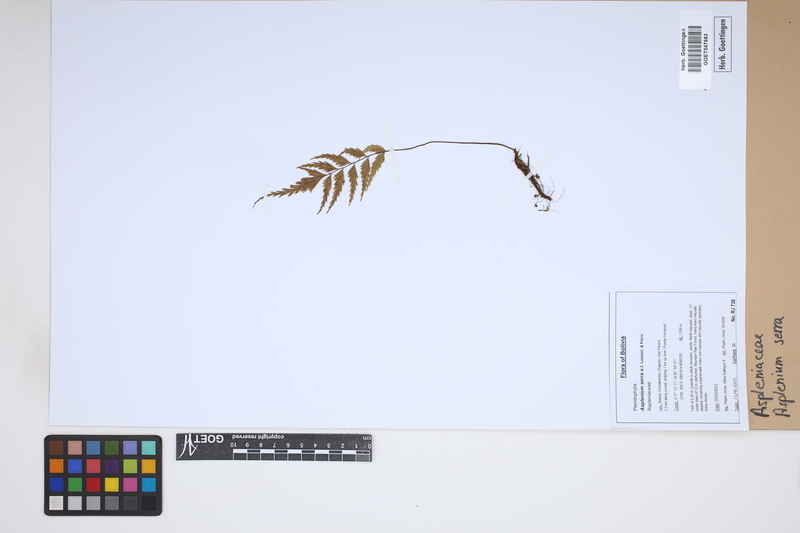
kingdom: Plantae
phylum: Tracheophyta
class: Polypodiopsida
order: Polypodiales
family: Aspleniaceae
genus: Asplenium
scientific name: Asplenium serra
